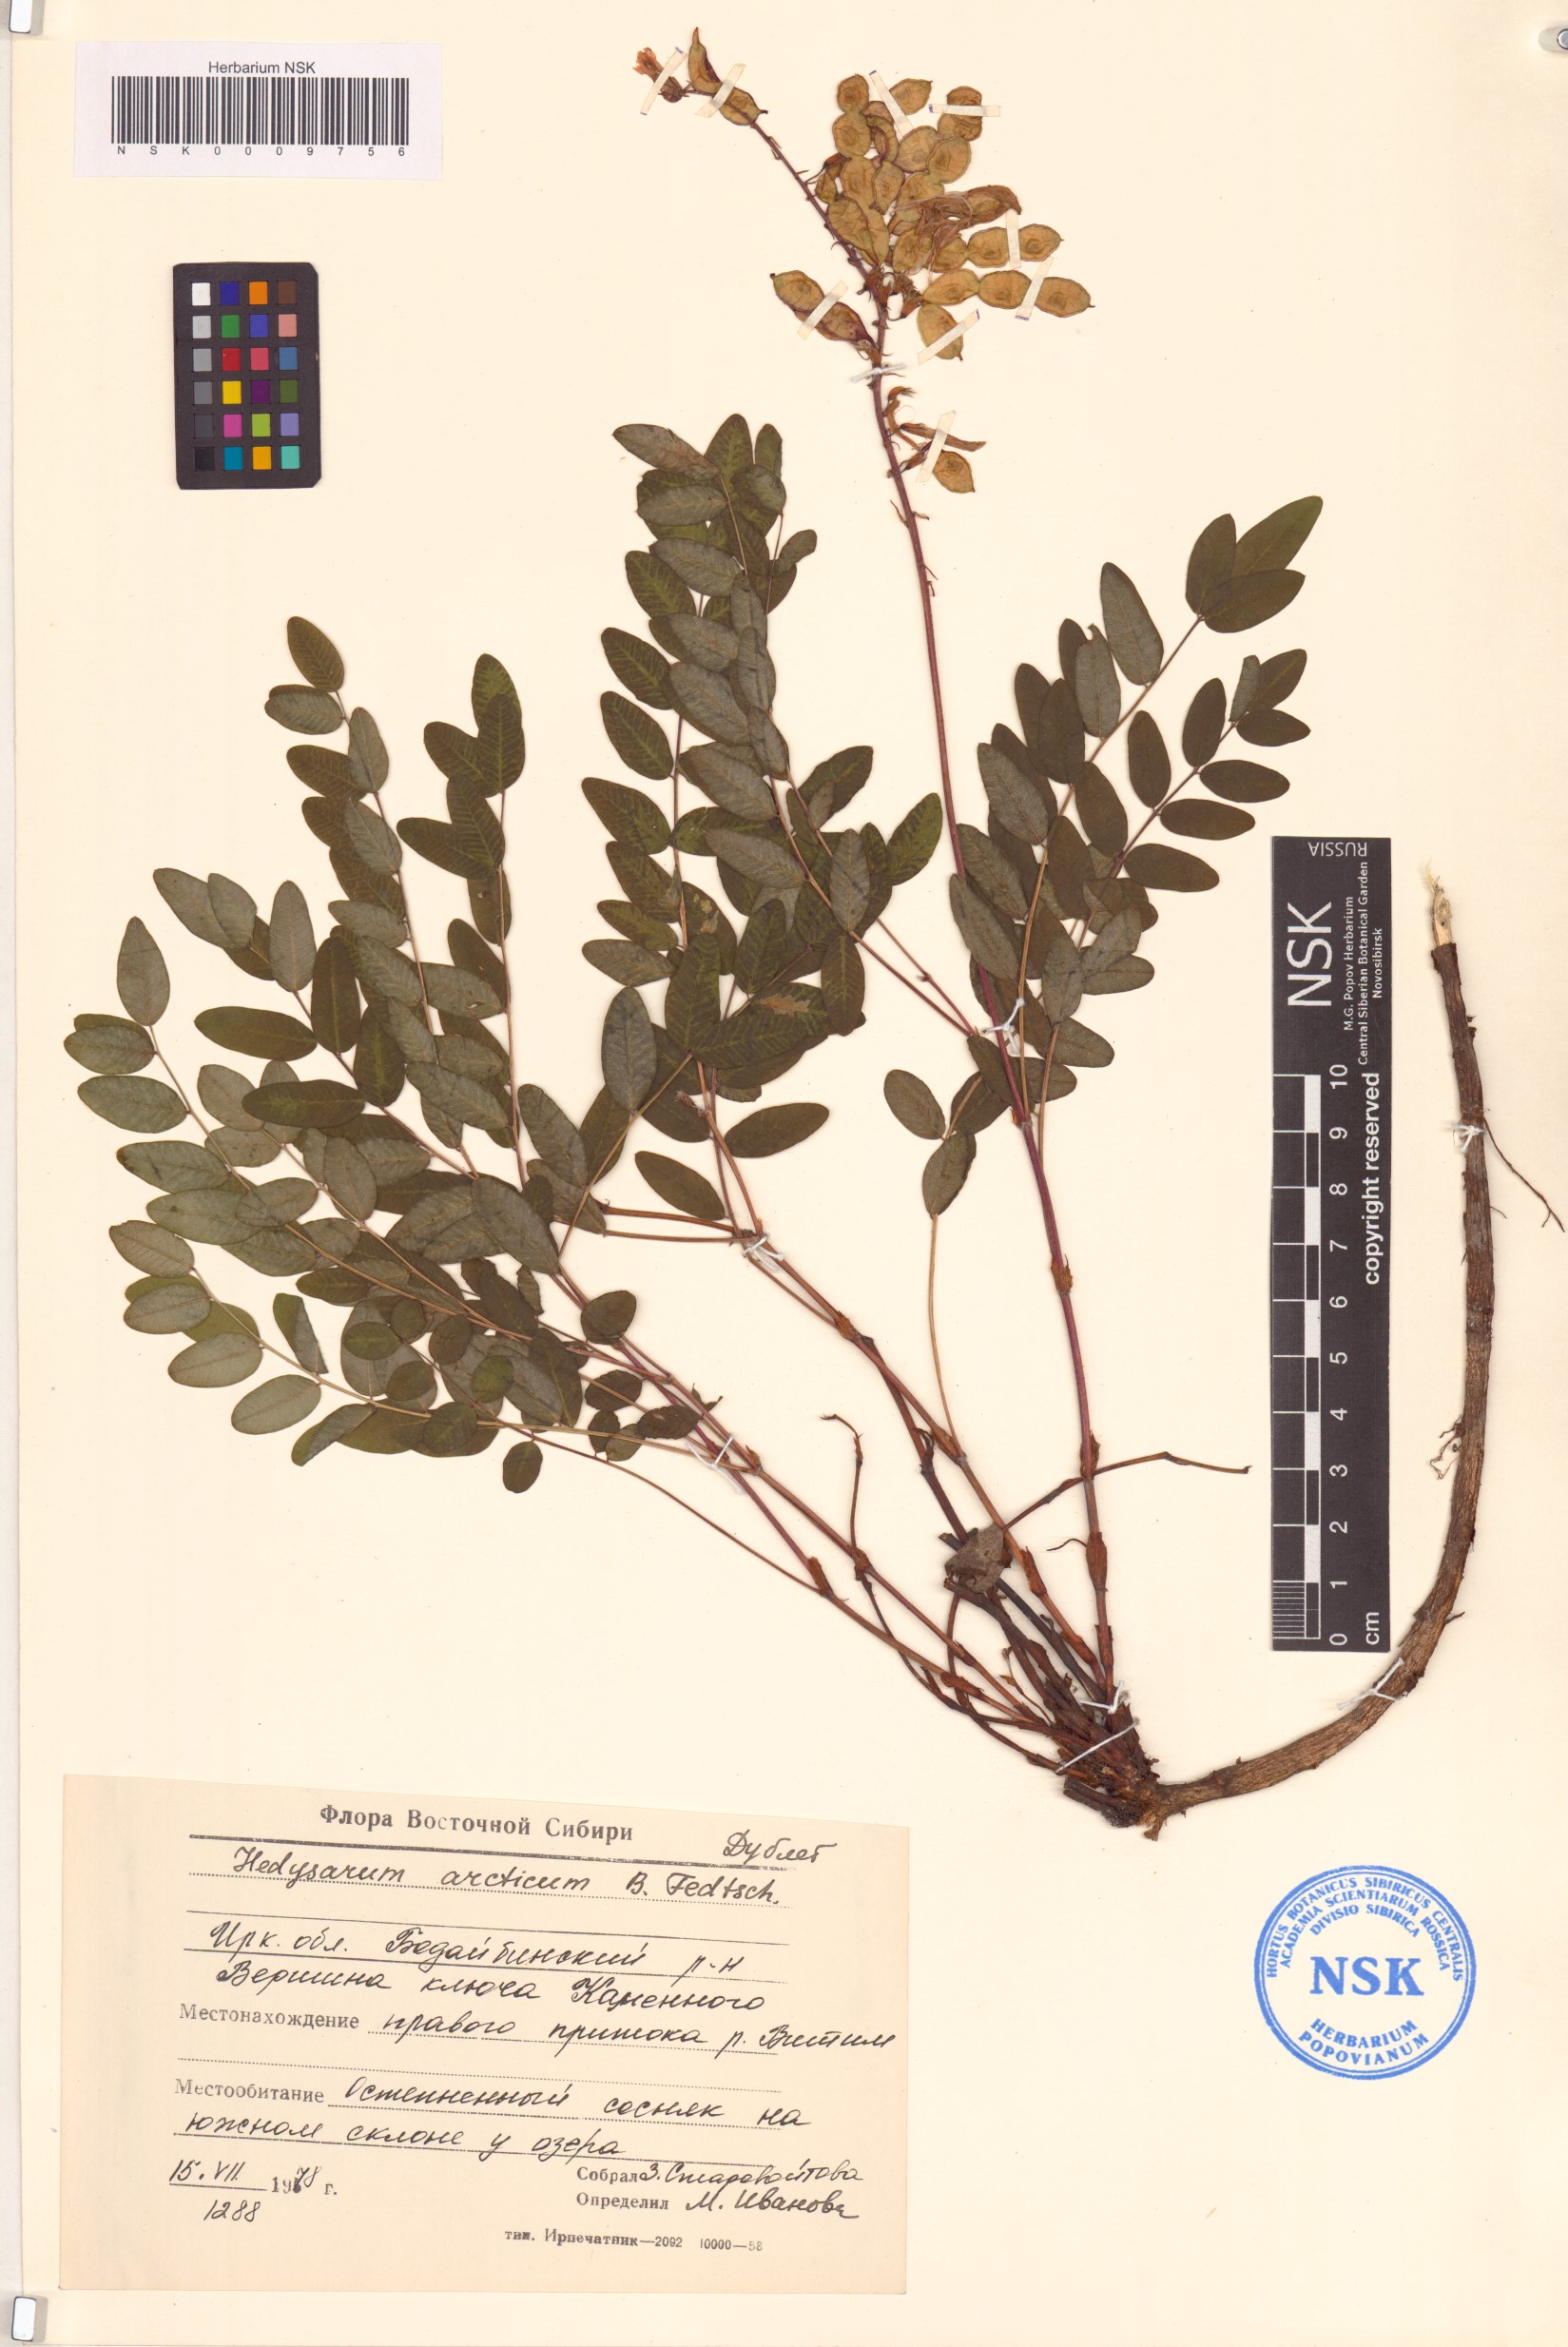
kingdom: Plantae
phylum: Tracheophyta
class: Magnoliopsida
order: Fabales
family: Fabaceae
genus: Hedysarum
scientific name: Hedysarum hedysaroides
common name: Alpine french-honeysuckle
